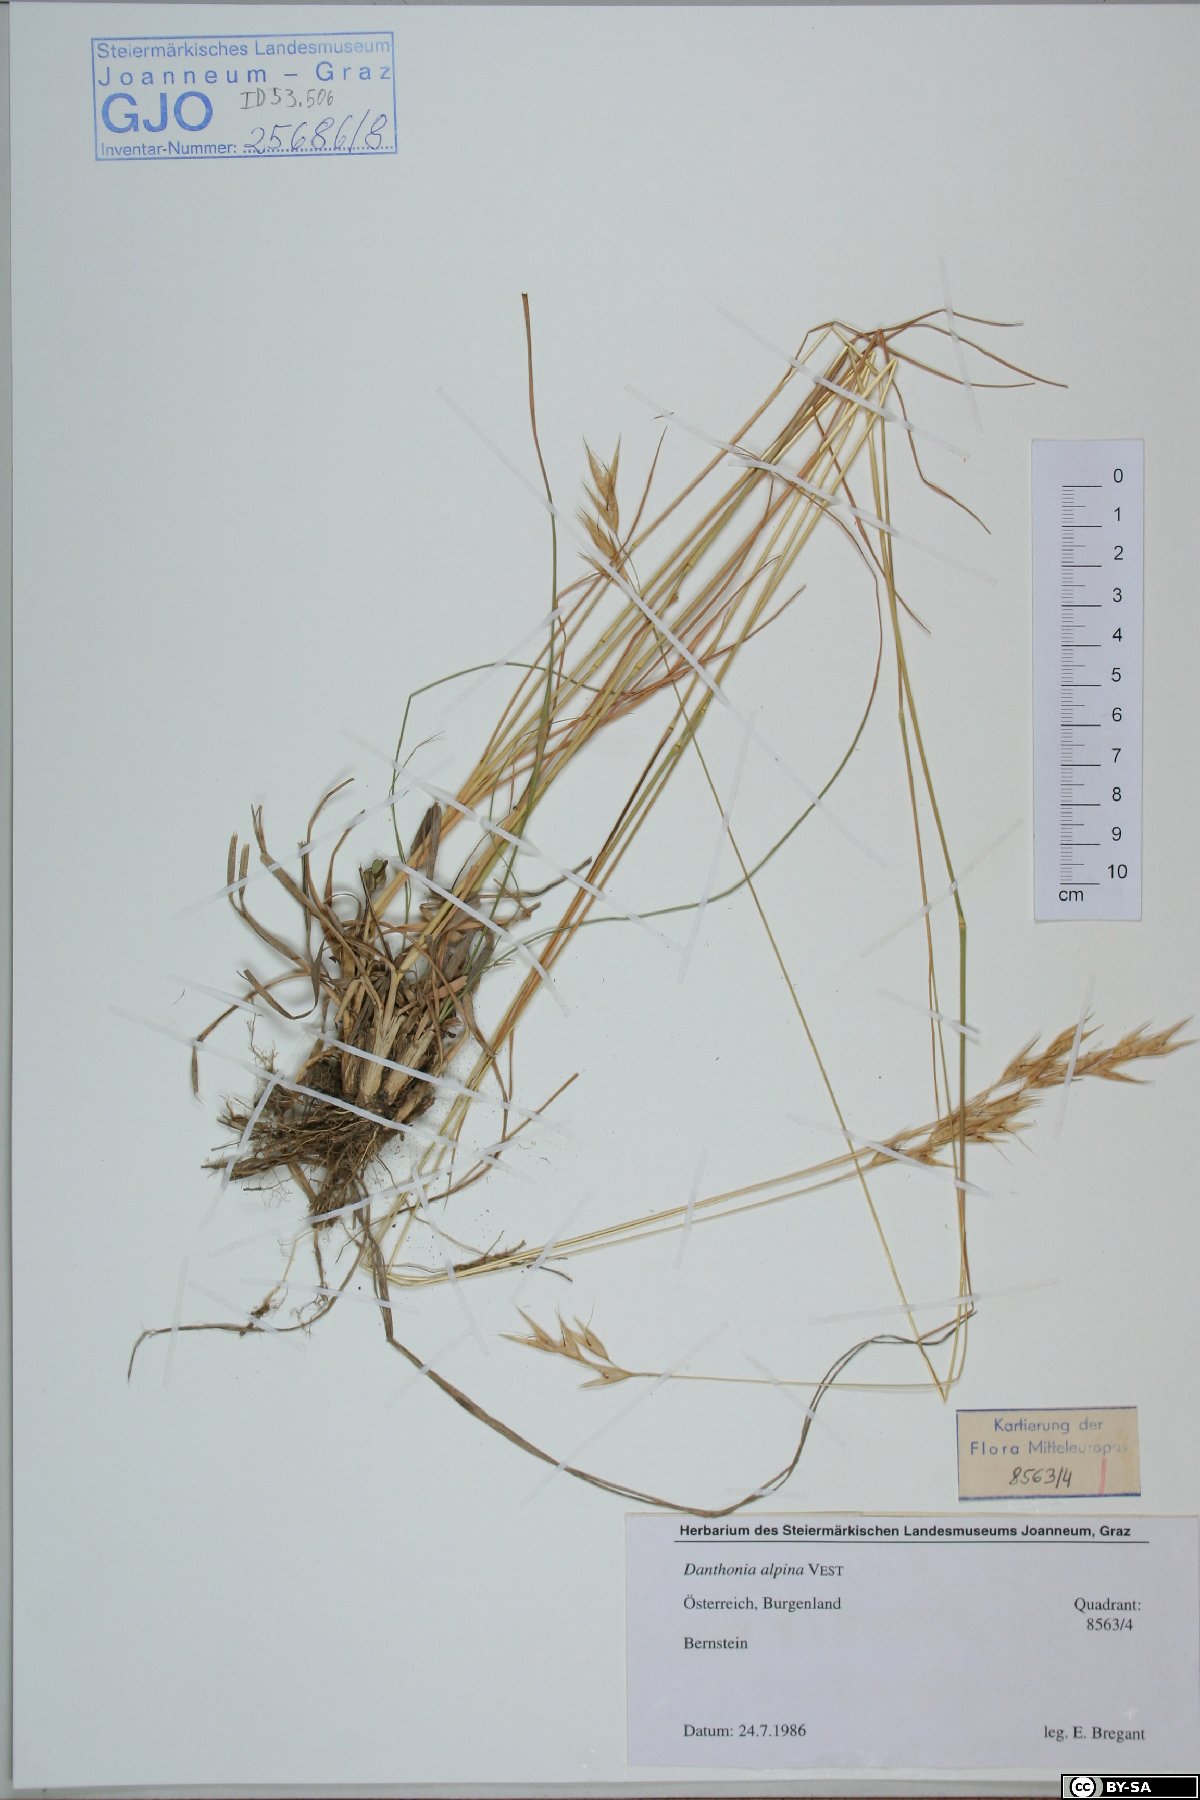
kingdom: Plantae
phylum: Tracheophyta
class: Liliopsida
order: Poales
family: Poaceae
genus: Danthonia
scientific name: Danthonia alpina
